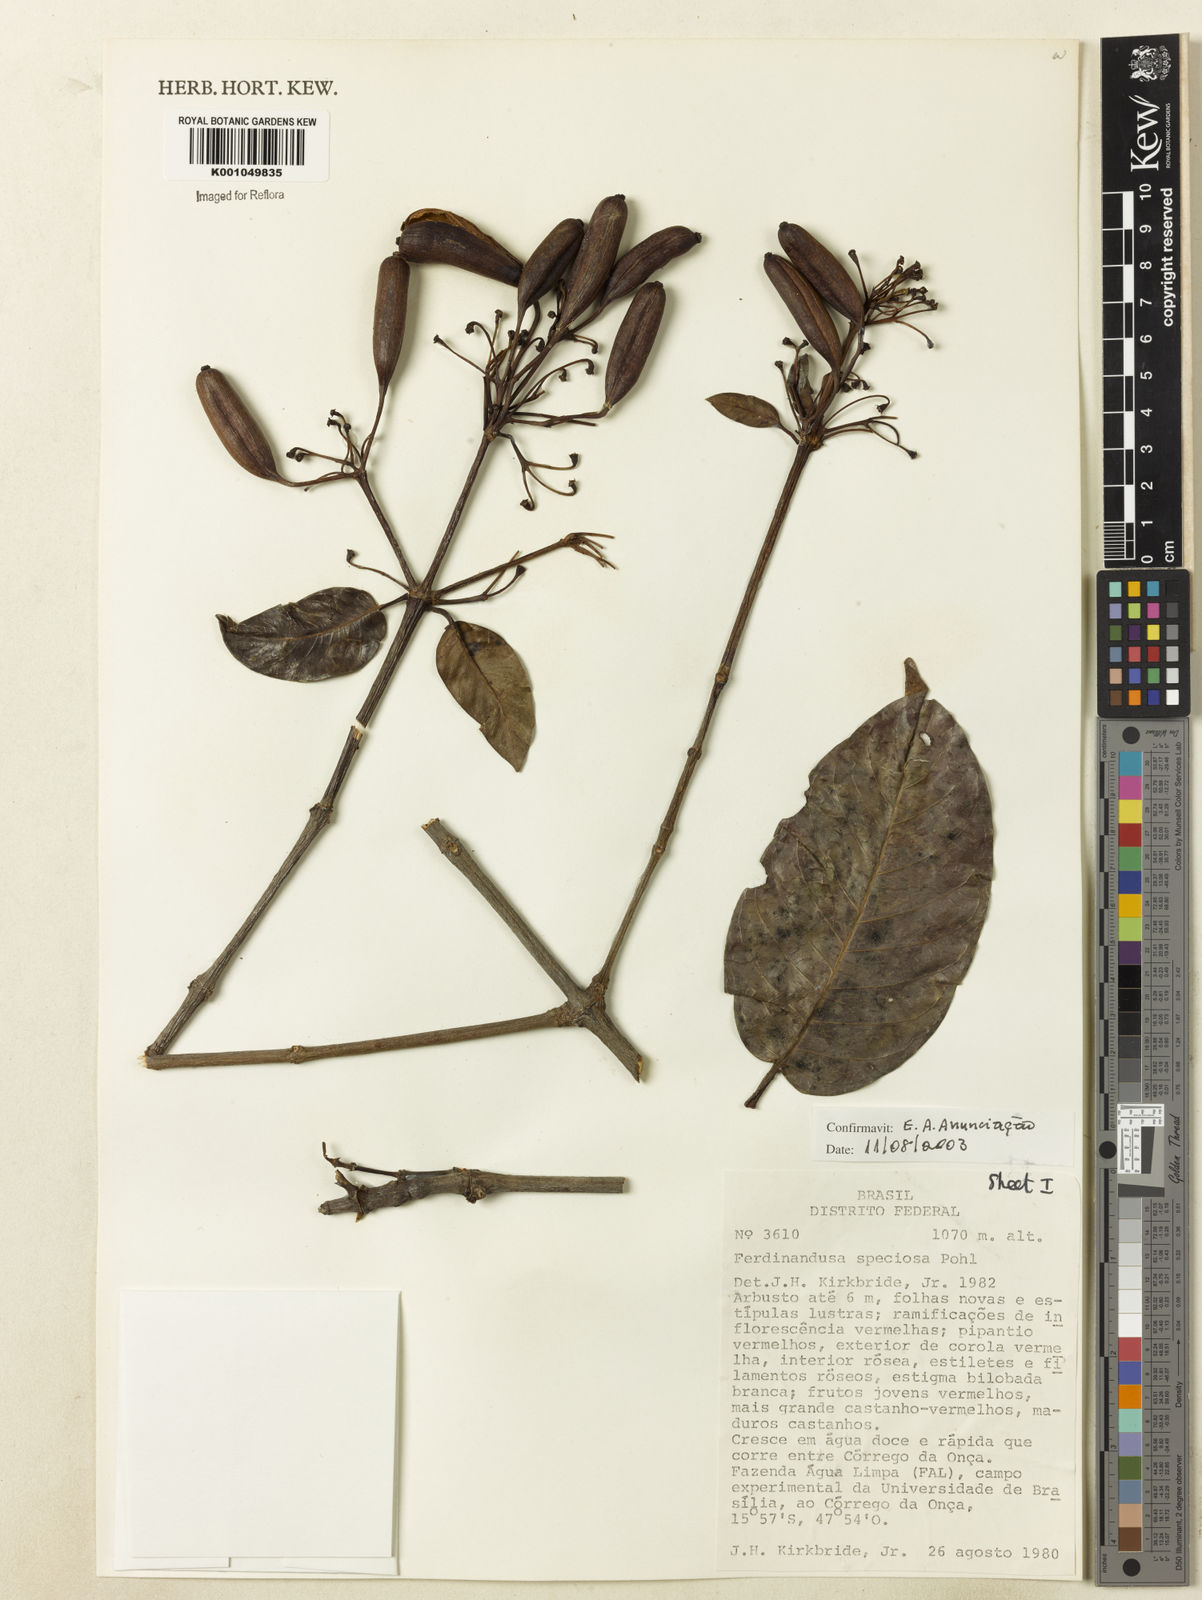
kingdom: Plantae
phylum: Tracheophyta
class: Magnoliopsida
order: Gentianales
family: Rubiaceae
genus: Ferdinandusa
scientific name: Ferdinandusa speciosa
